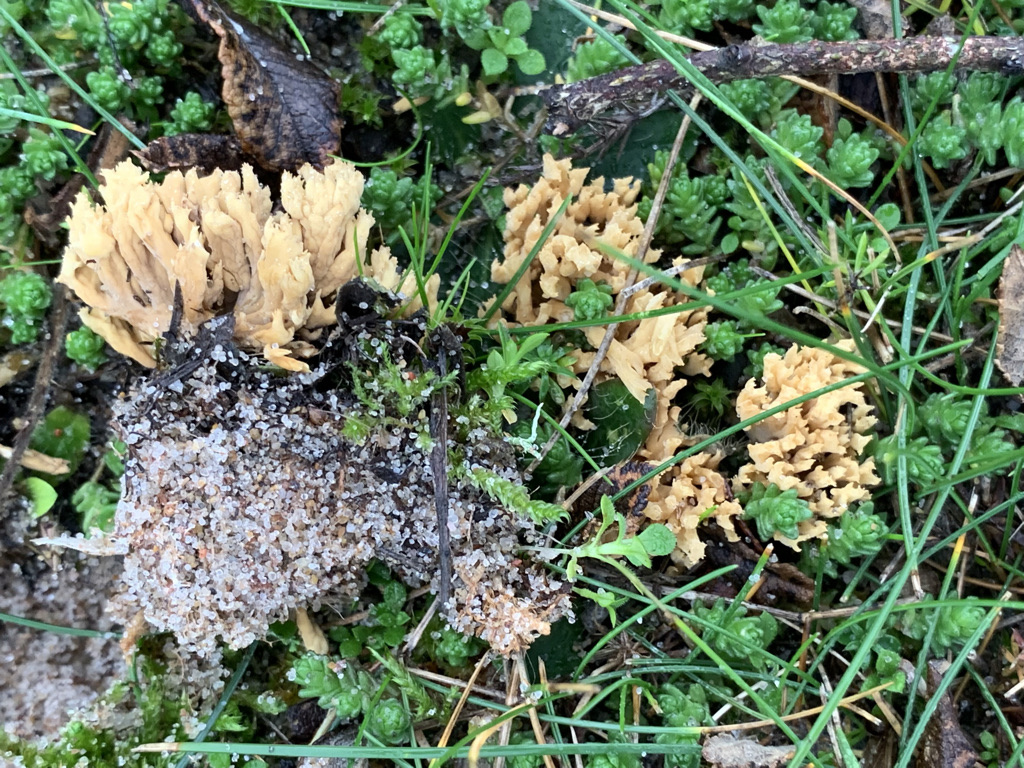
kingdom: Fungi
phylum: Basidiomycota
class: Agaricomycetes
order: Gomphales
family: Gomphaceae
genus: Phaeoclavulina
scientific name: Phaeoclavulina flaccida
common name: spinkel koralsvamp
